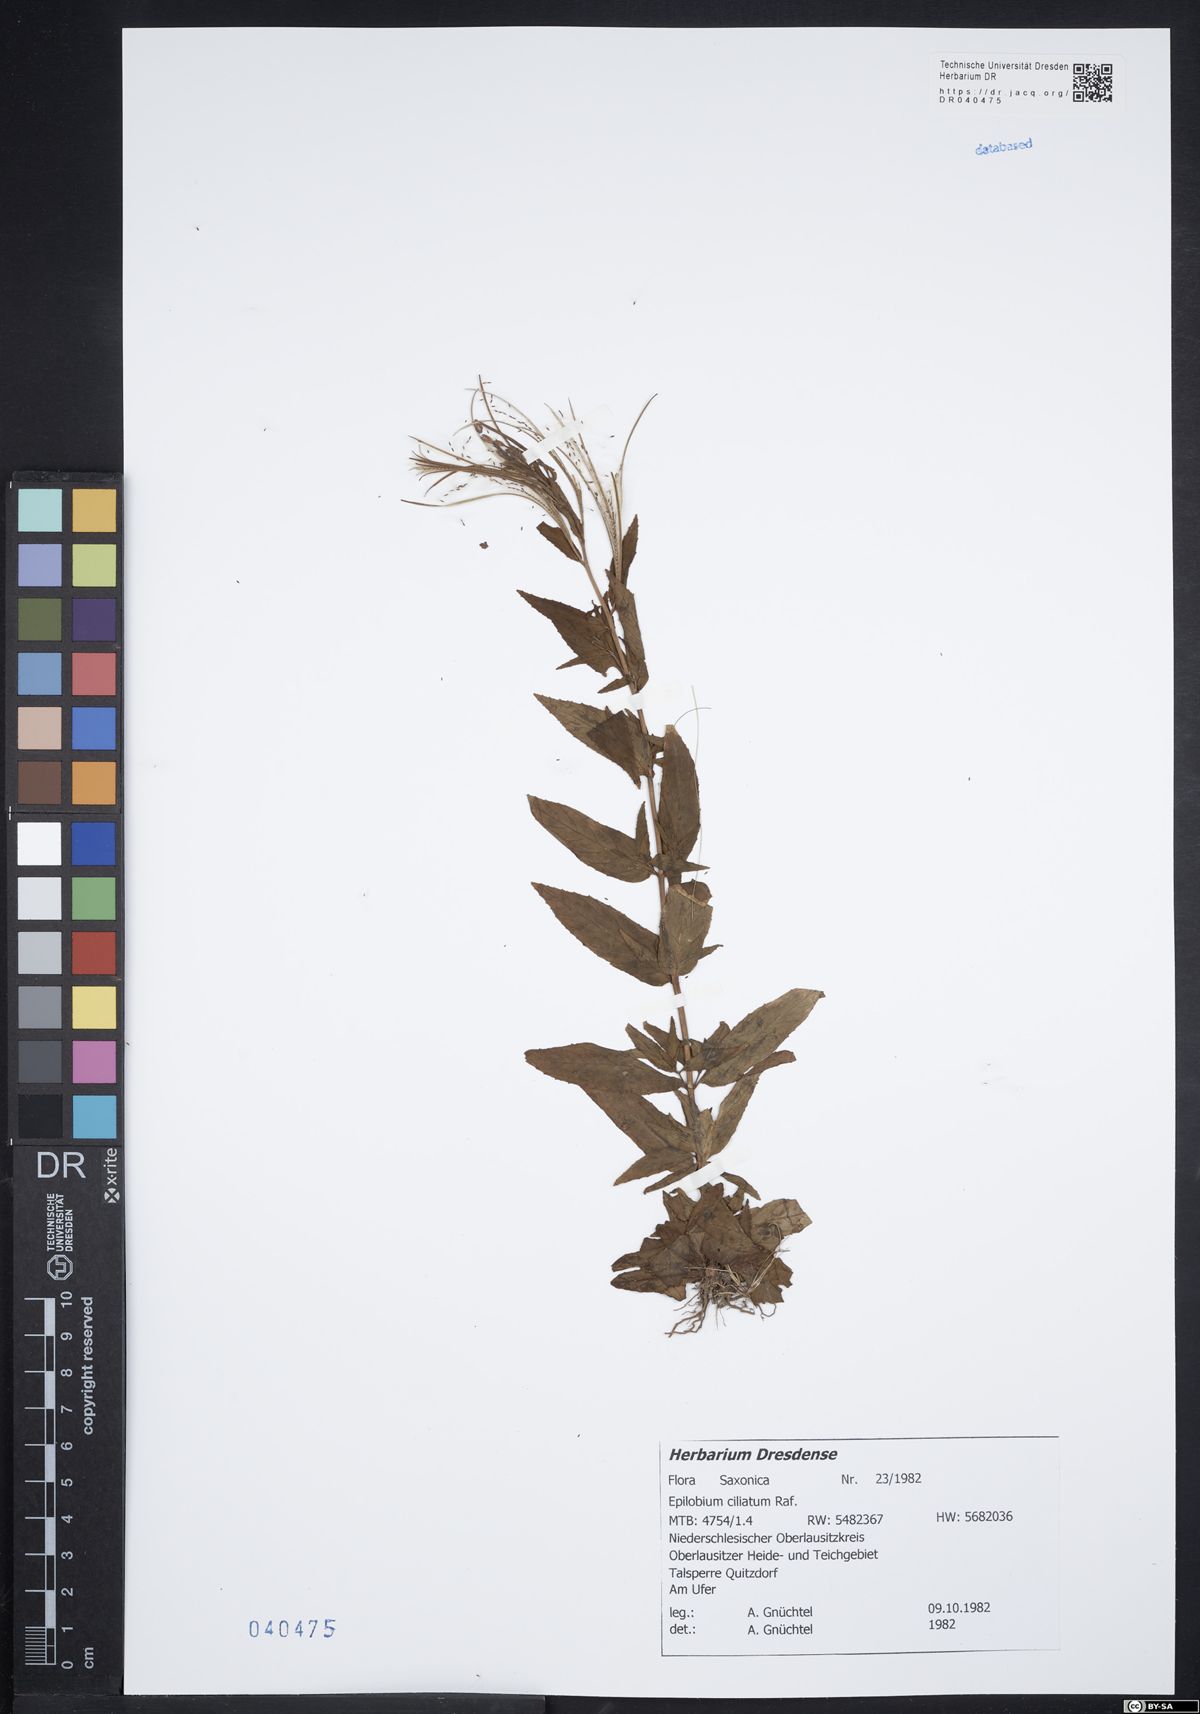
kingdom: Plantae
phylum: Tracheophyta
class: Magnoliopsida
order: Myrtales
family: Onagraceae
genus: Epilobium
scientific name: Epilobium ciliatum
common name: American willowherb
